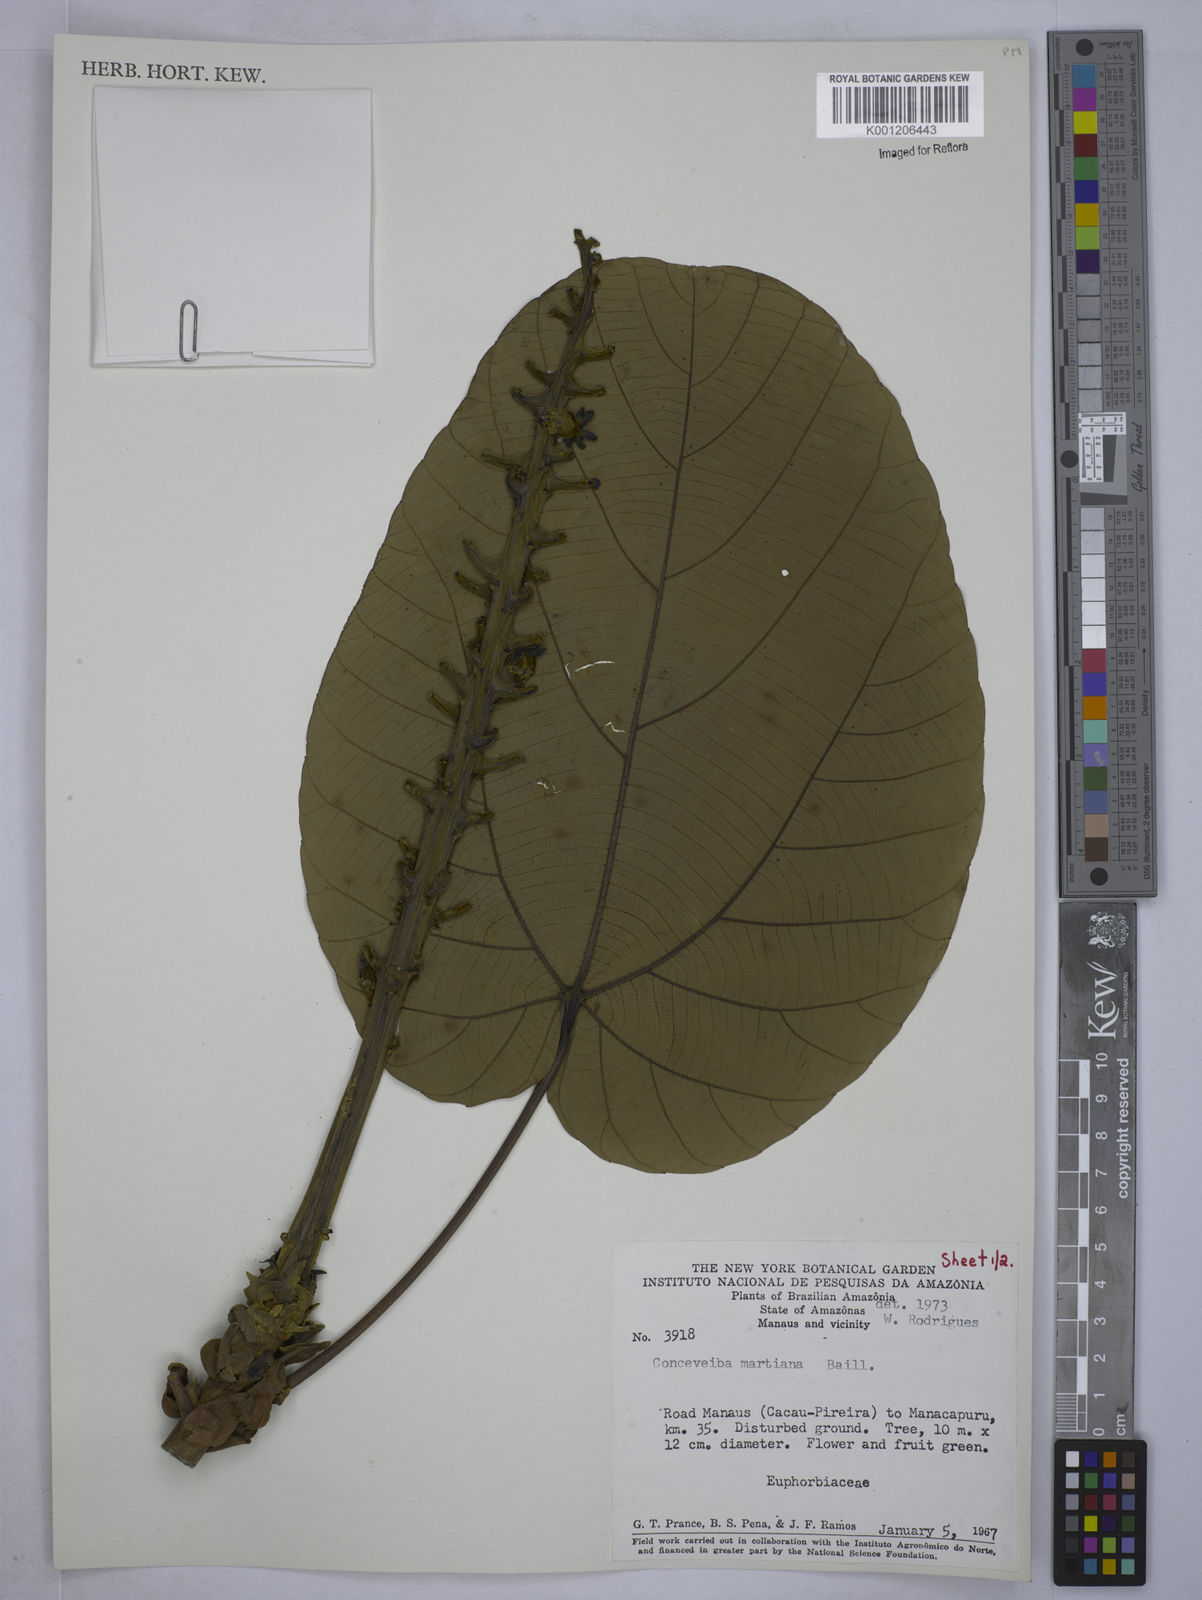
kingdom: Plantae
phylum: Tracheophyta
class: Magnoliopsida
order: Malpighiales
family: Euphorbiaceae
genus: Conceveiba
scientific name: Conceveiba martiana
